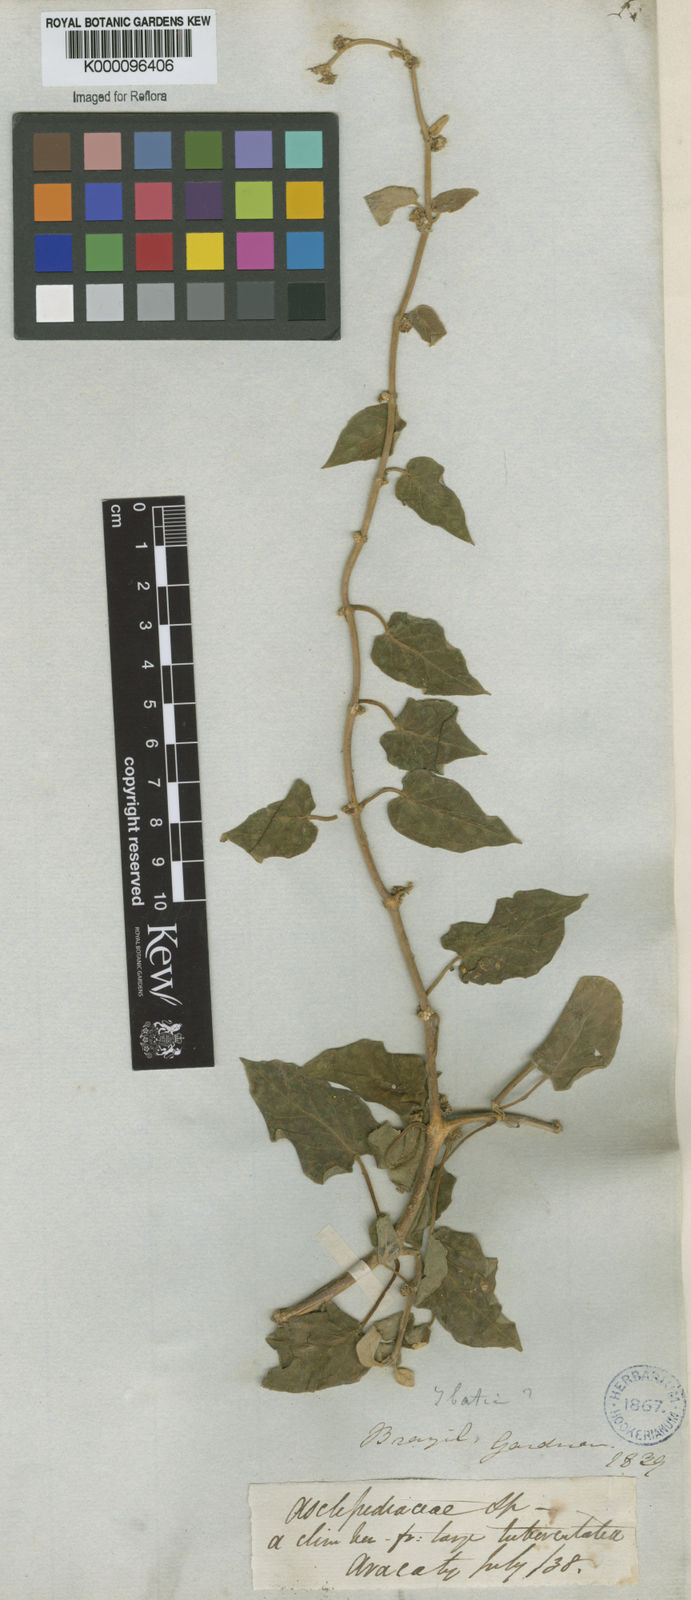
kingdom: Plantae
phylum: Tracheophyta
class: Magnoliopsida
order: Gentianales
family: Apocynaceae
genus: Matelea
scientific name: Matelea
